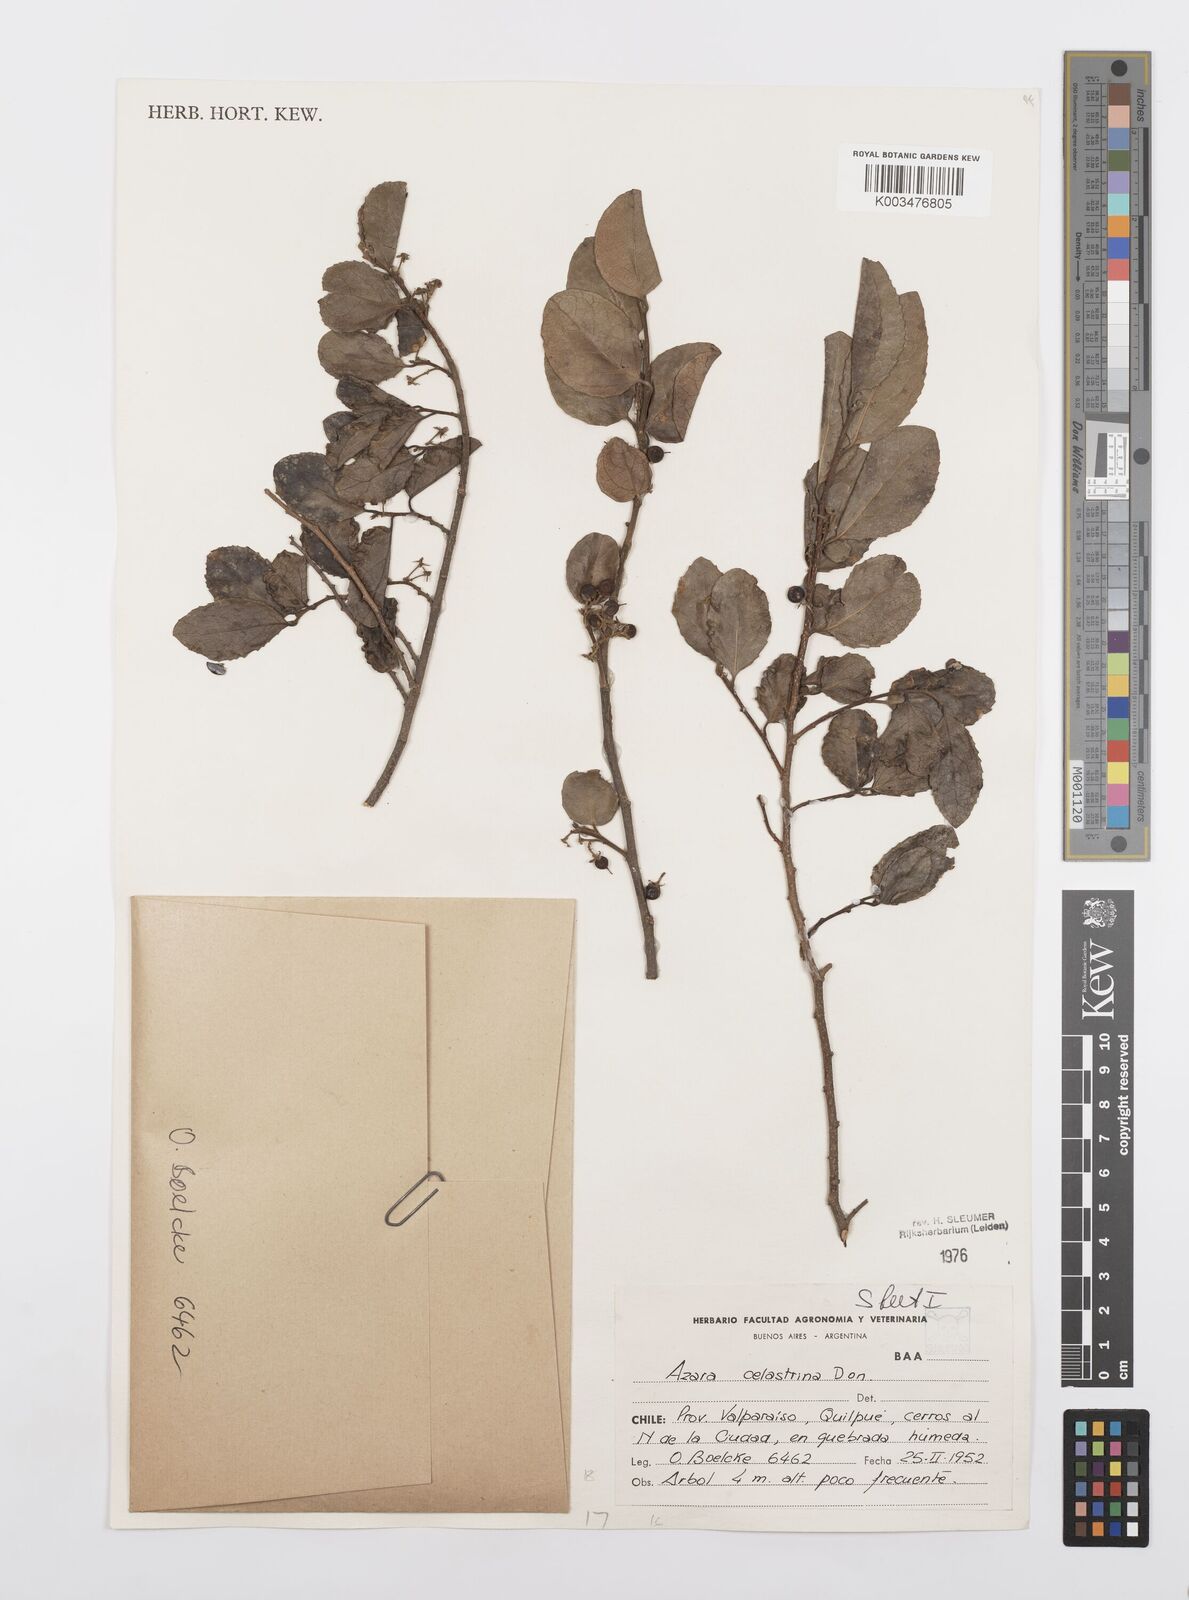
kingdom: Plantae
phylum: Tracheophyta
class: Magnoliopsida
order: Malpighiales
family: Salicaceae
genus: Azara
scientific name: Azara celastrina
